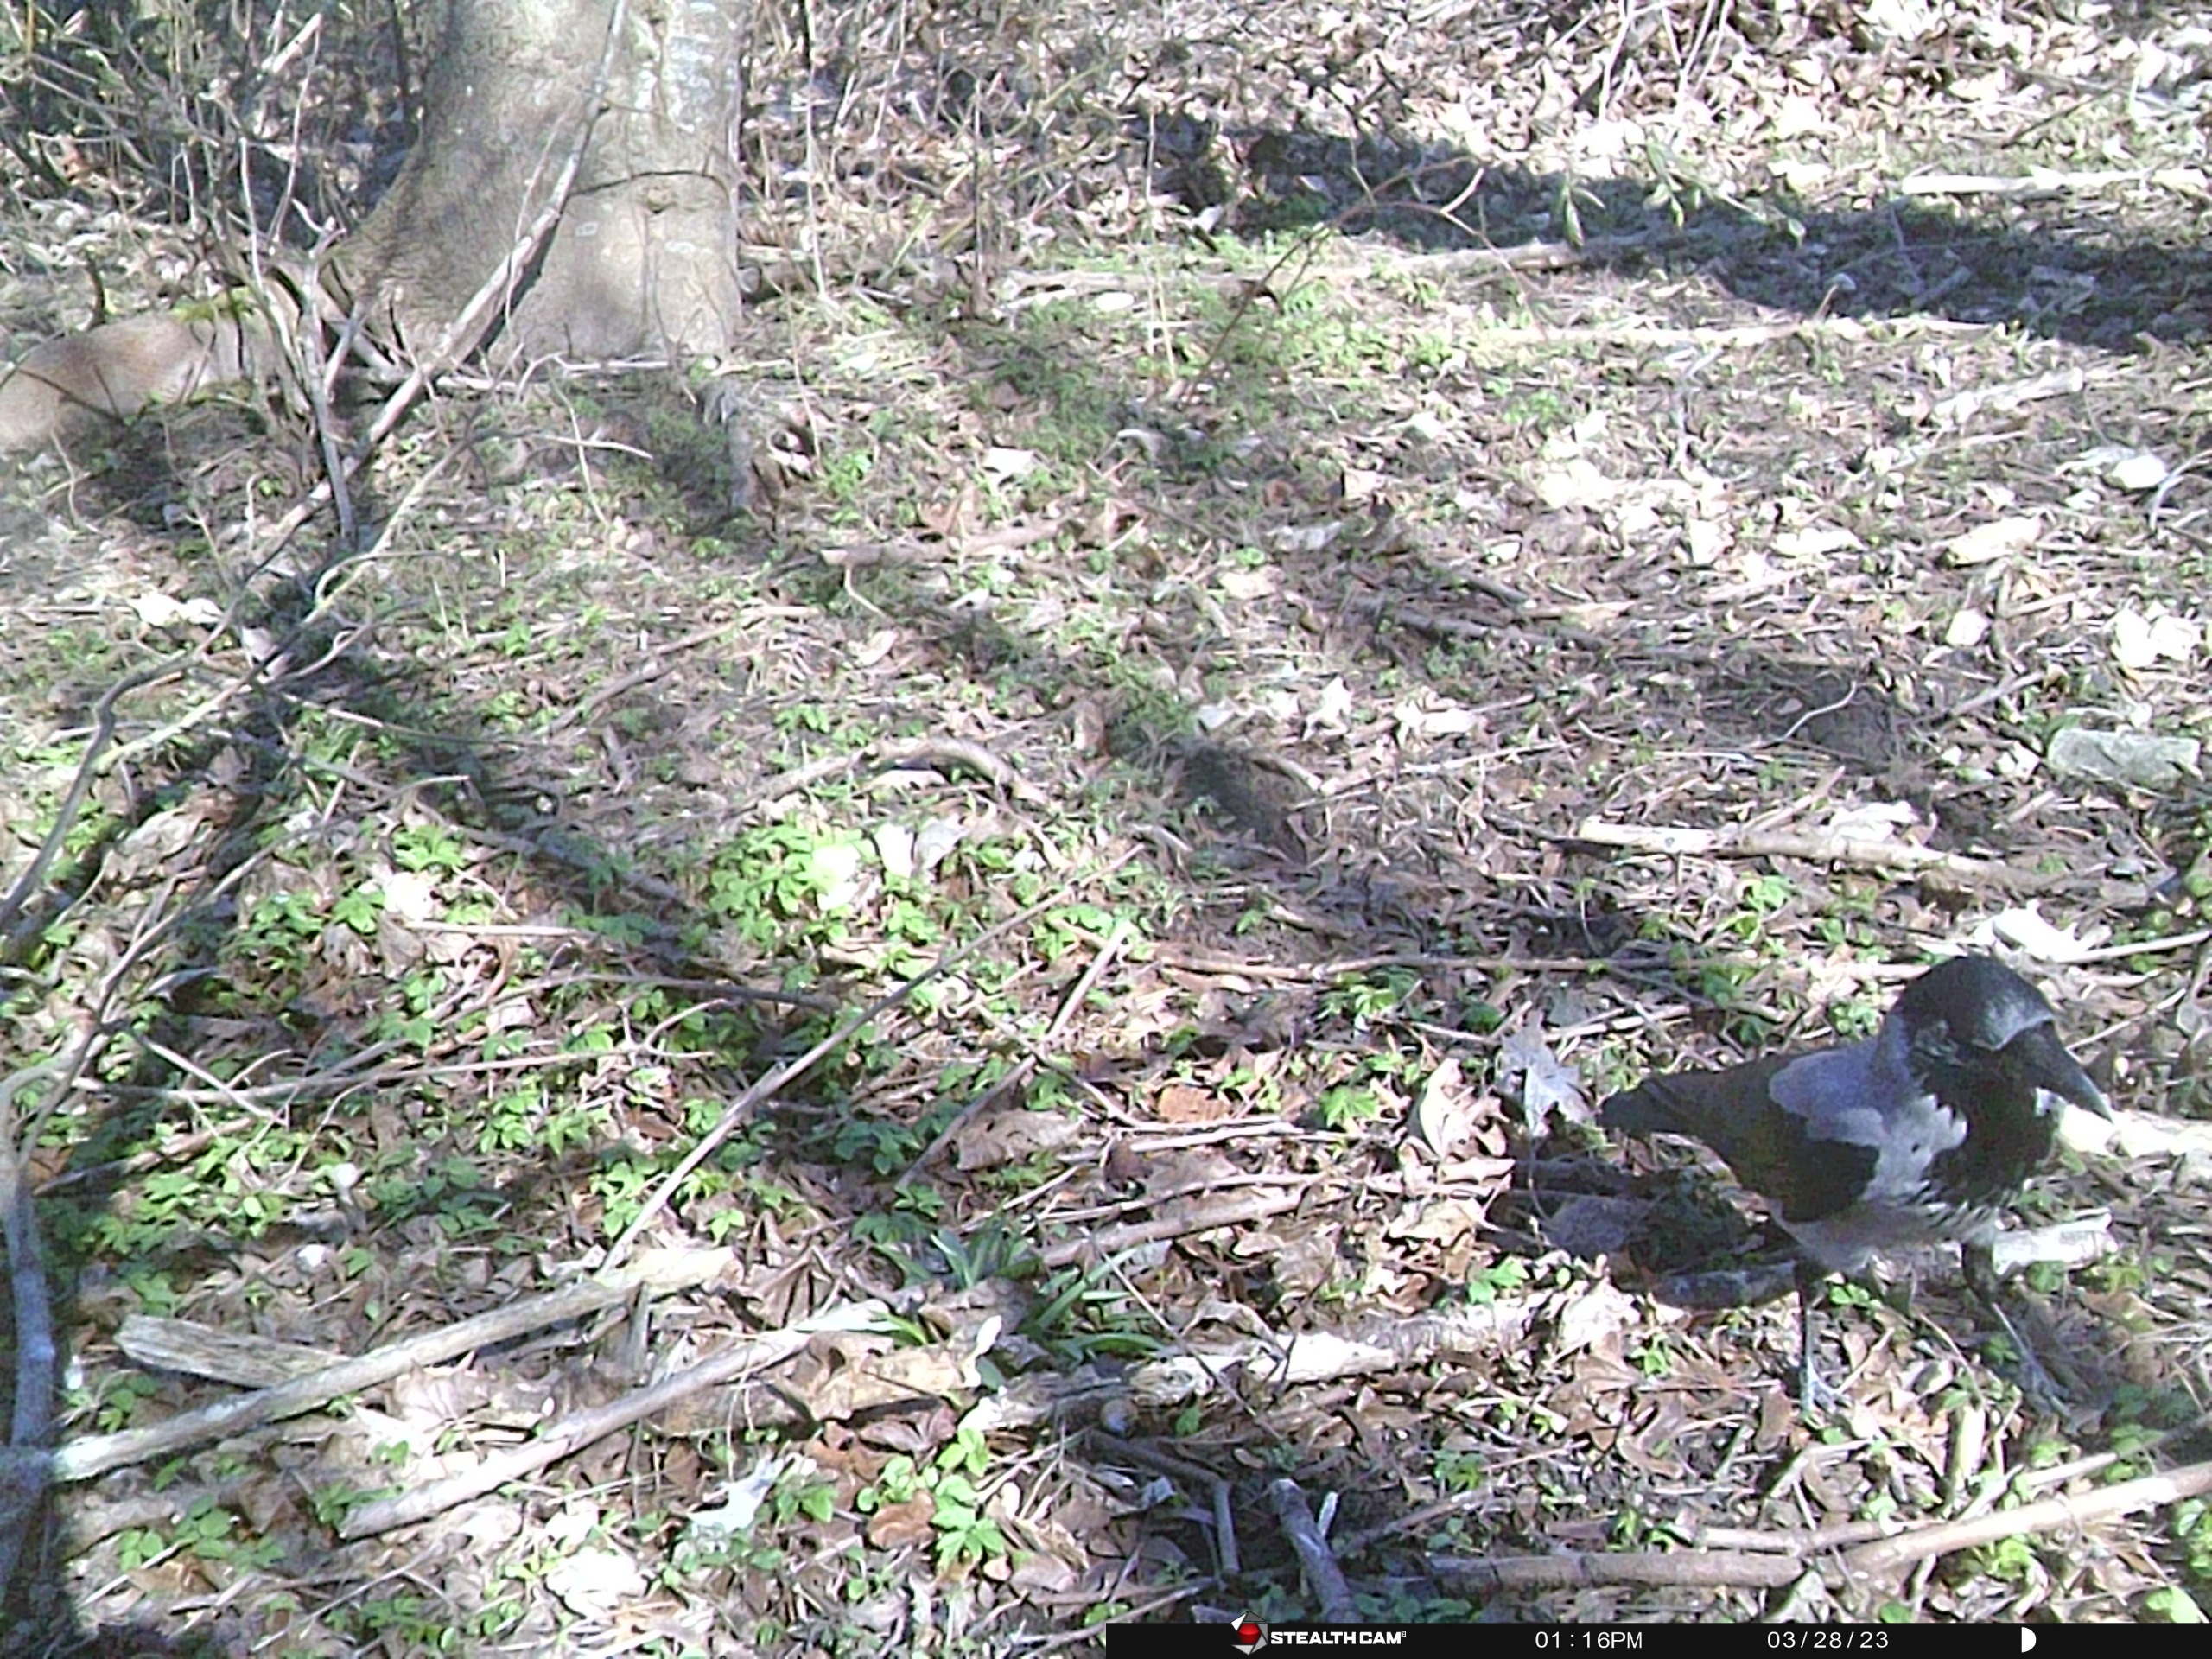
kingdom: Animalia
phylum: Chordata
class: Aves
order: Passeriformes
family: Corvidae
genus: Corvus
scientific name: Corvus cornix
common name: Gråkrage
